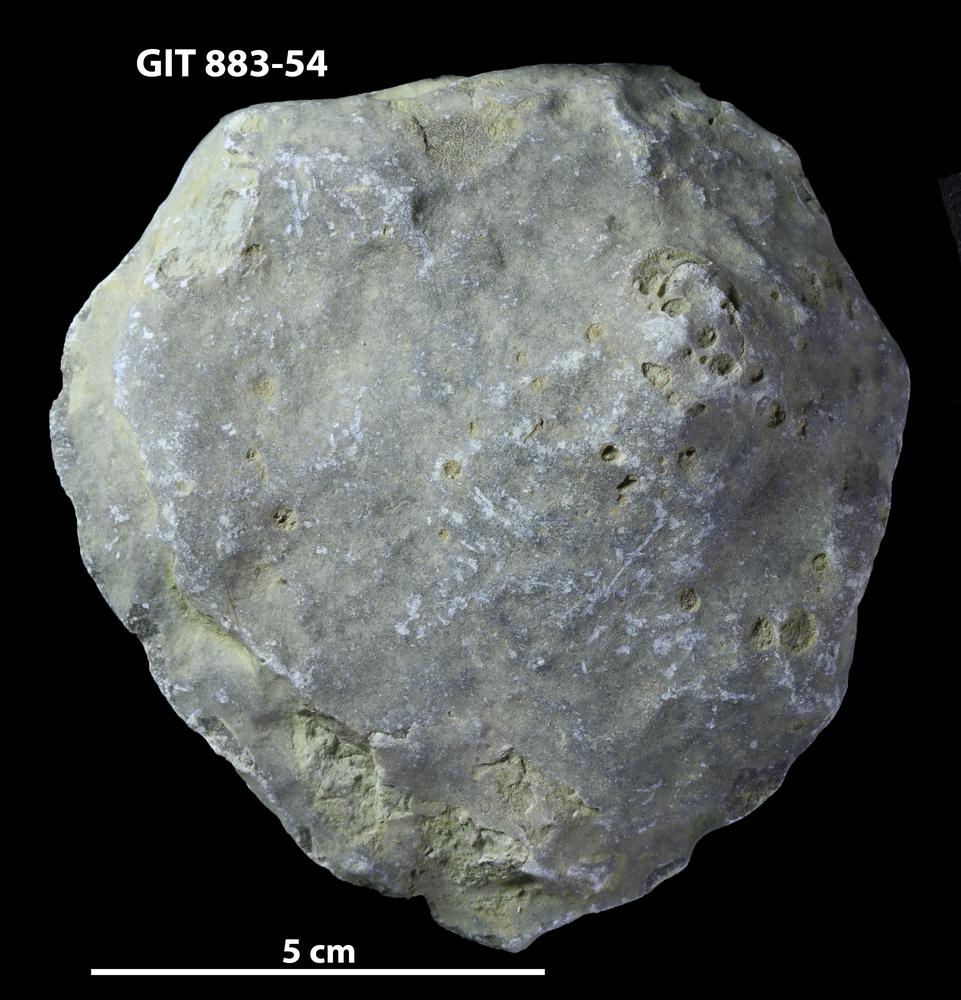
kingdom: Animalia
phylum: Porifera
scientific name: Porifera
